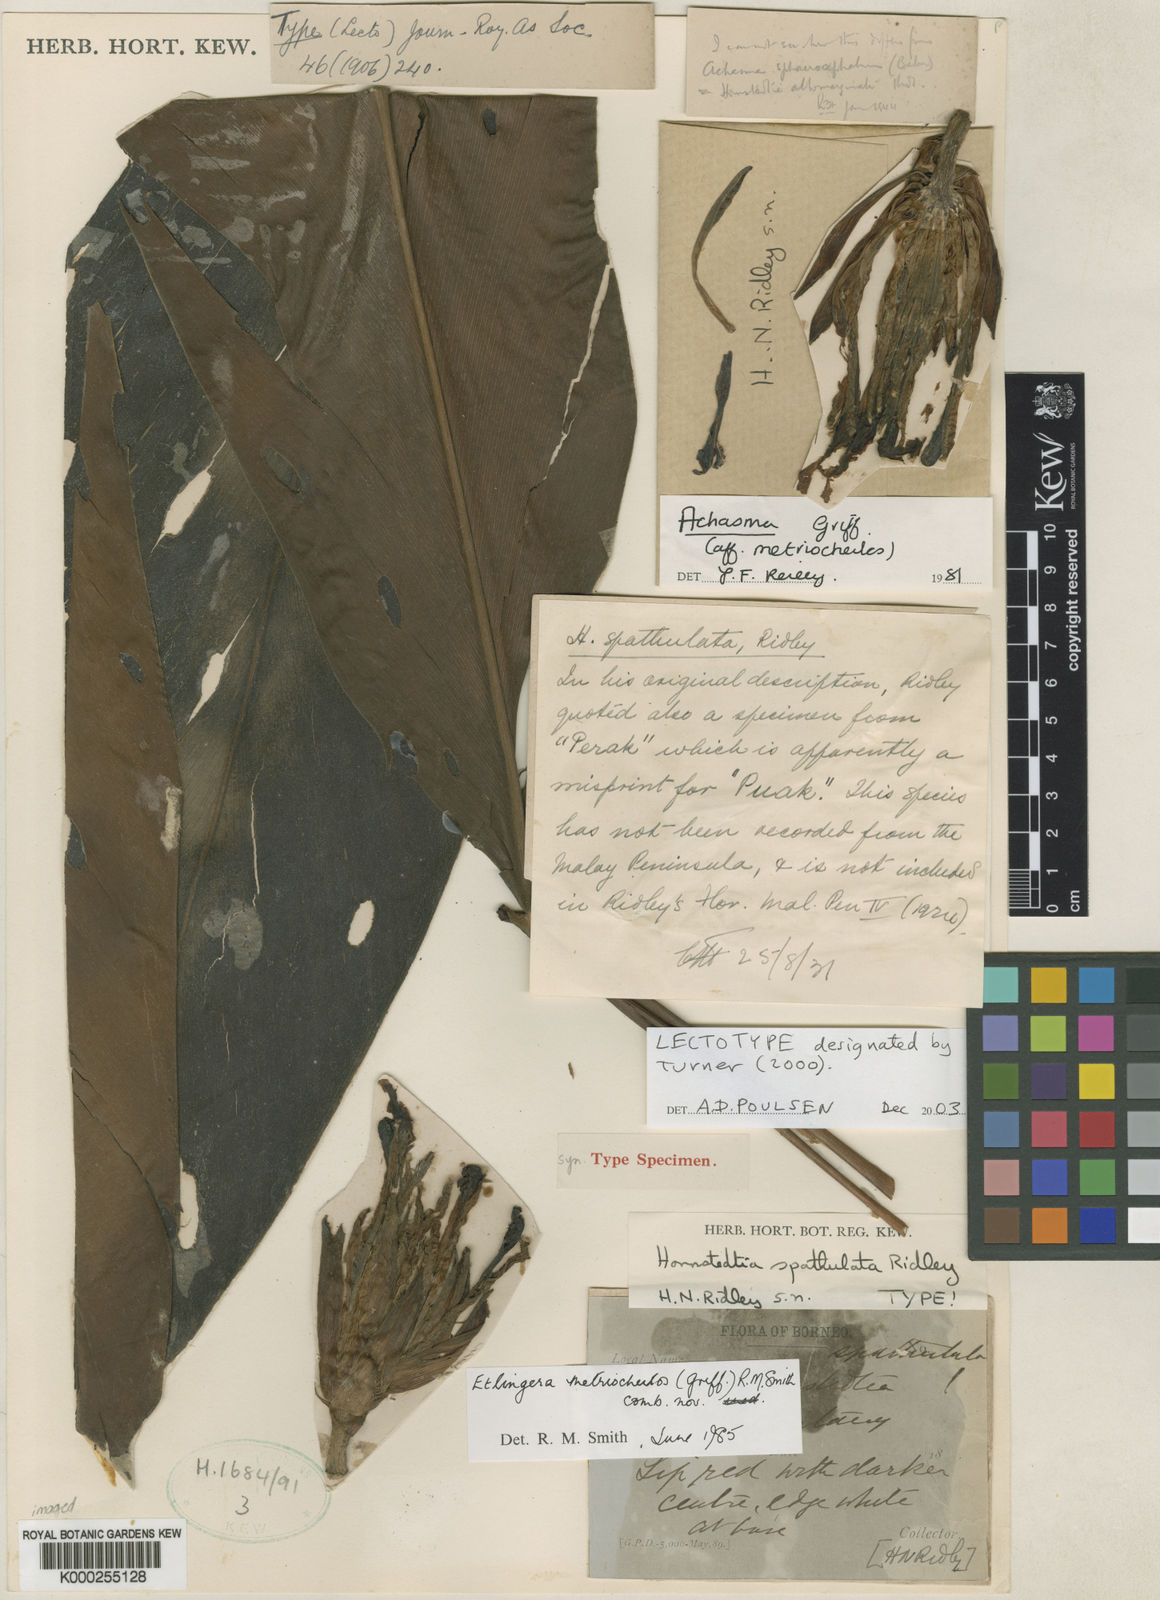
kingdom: Plantae
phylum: Tracheophyta
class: Liliopsida
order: Zingiberales
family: Zingiberaceae
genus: Etlingera
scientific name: Etlingera metriocheilos
